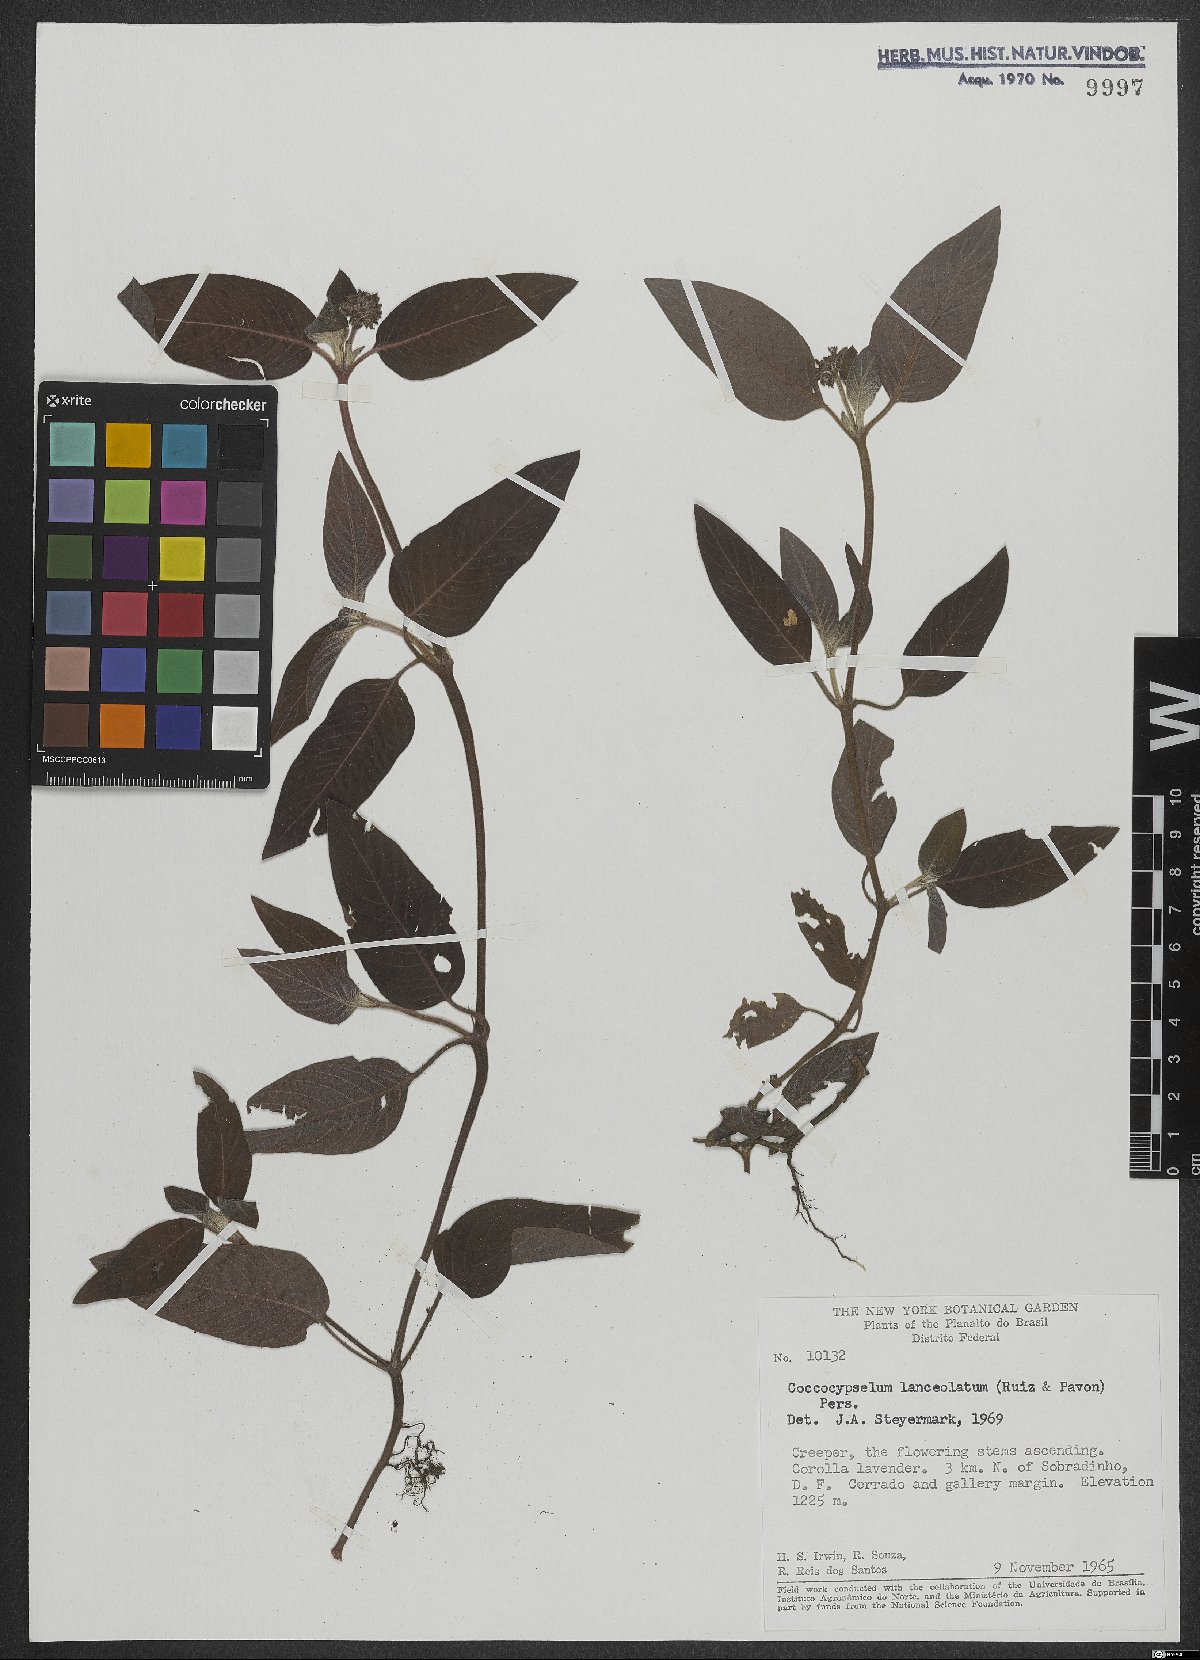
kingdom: Plantae
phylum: Tracheophyta
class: Magnoliopsida
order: Gentianales
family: Rubiaceae
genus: Coccocypselum
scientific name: Coccocypselum lanceolatum
